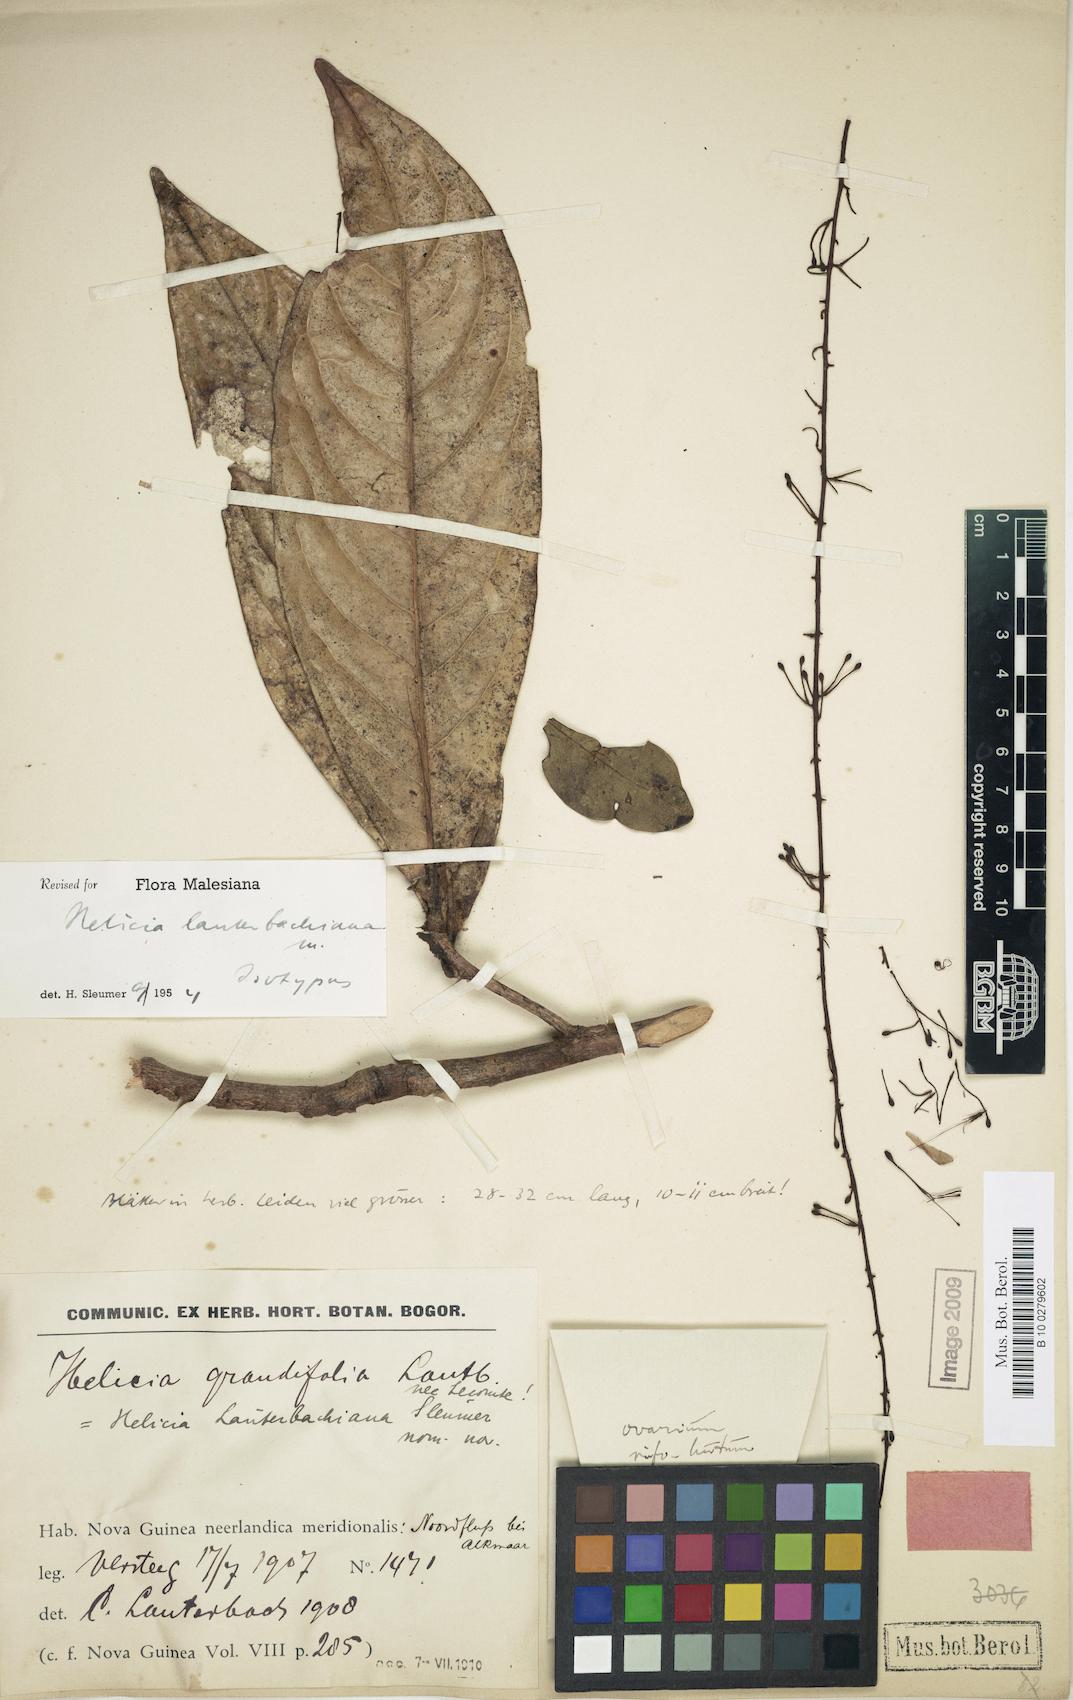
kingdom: Plantae
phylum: Tracheophyta
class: Magnoliopsida
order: Proteales
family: Proteaceae
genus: Helicia
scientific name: Helicia lauterbachiana
